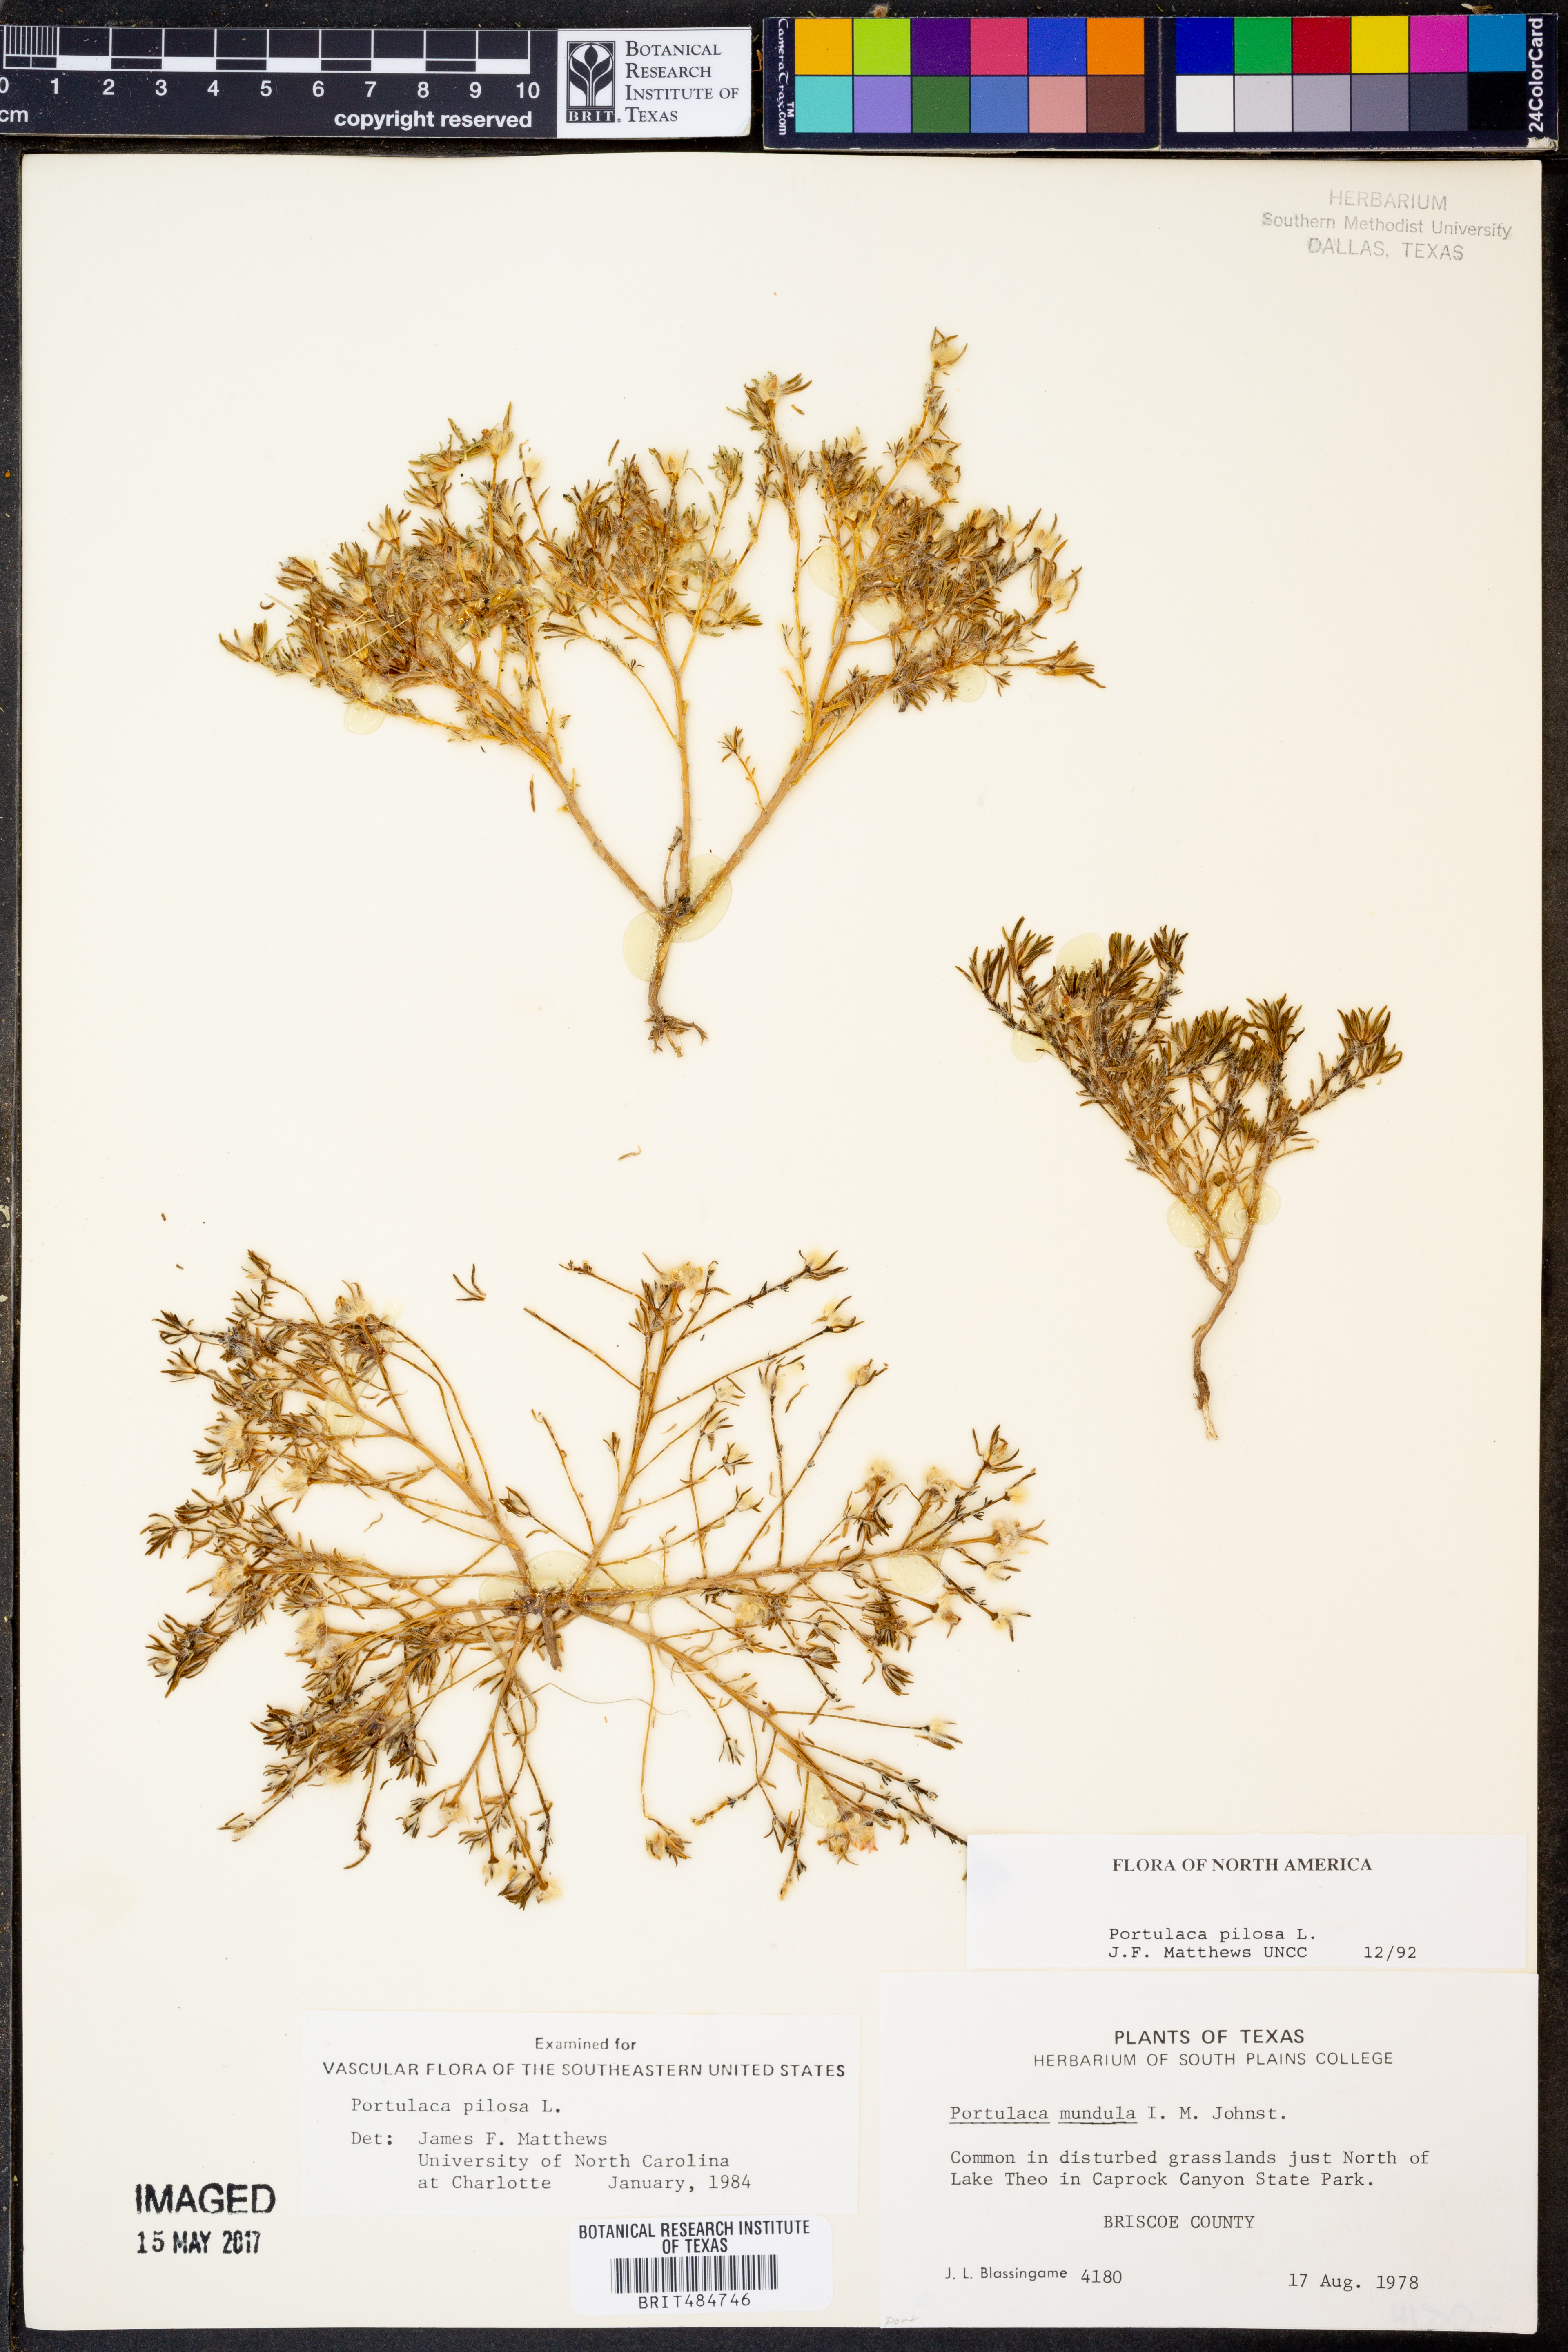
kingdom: Plantae
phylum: Tracheophyta
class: Magnoliopsida
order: Caryophyllales
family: Portulacaceae
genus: Portulaca
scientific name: Portulaca pilosa
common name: Kiss me quick
